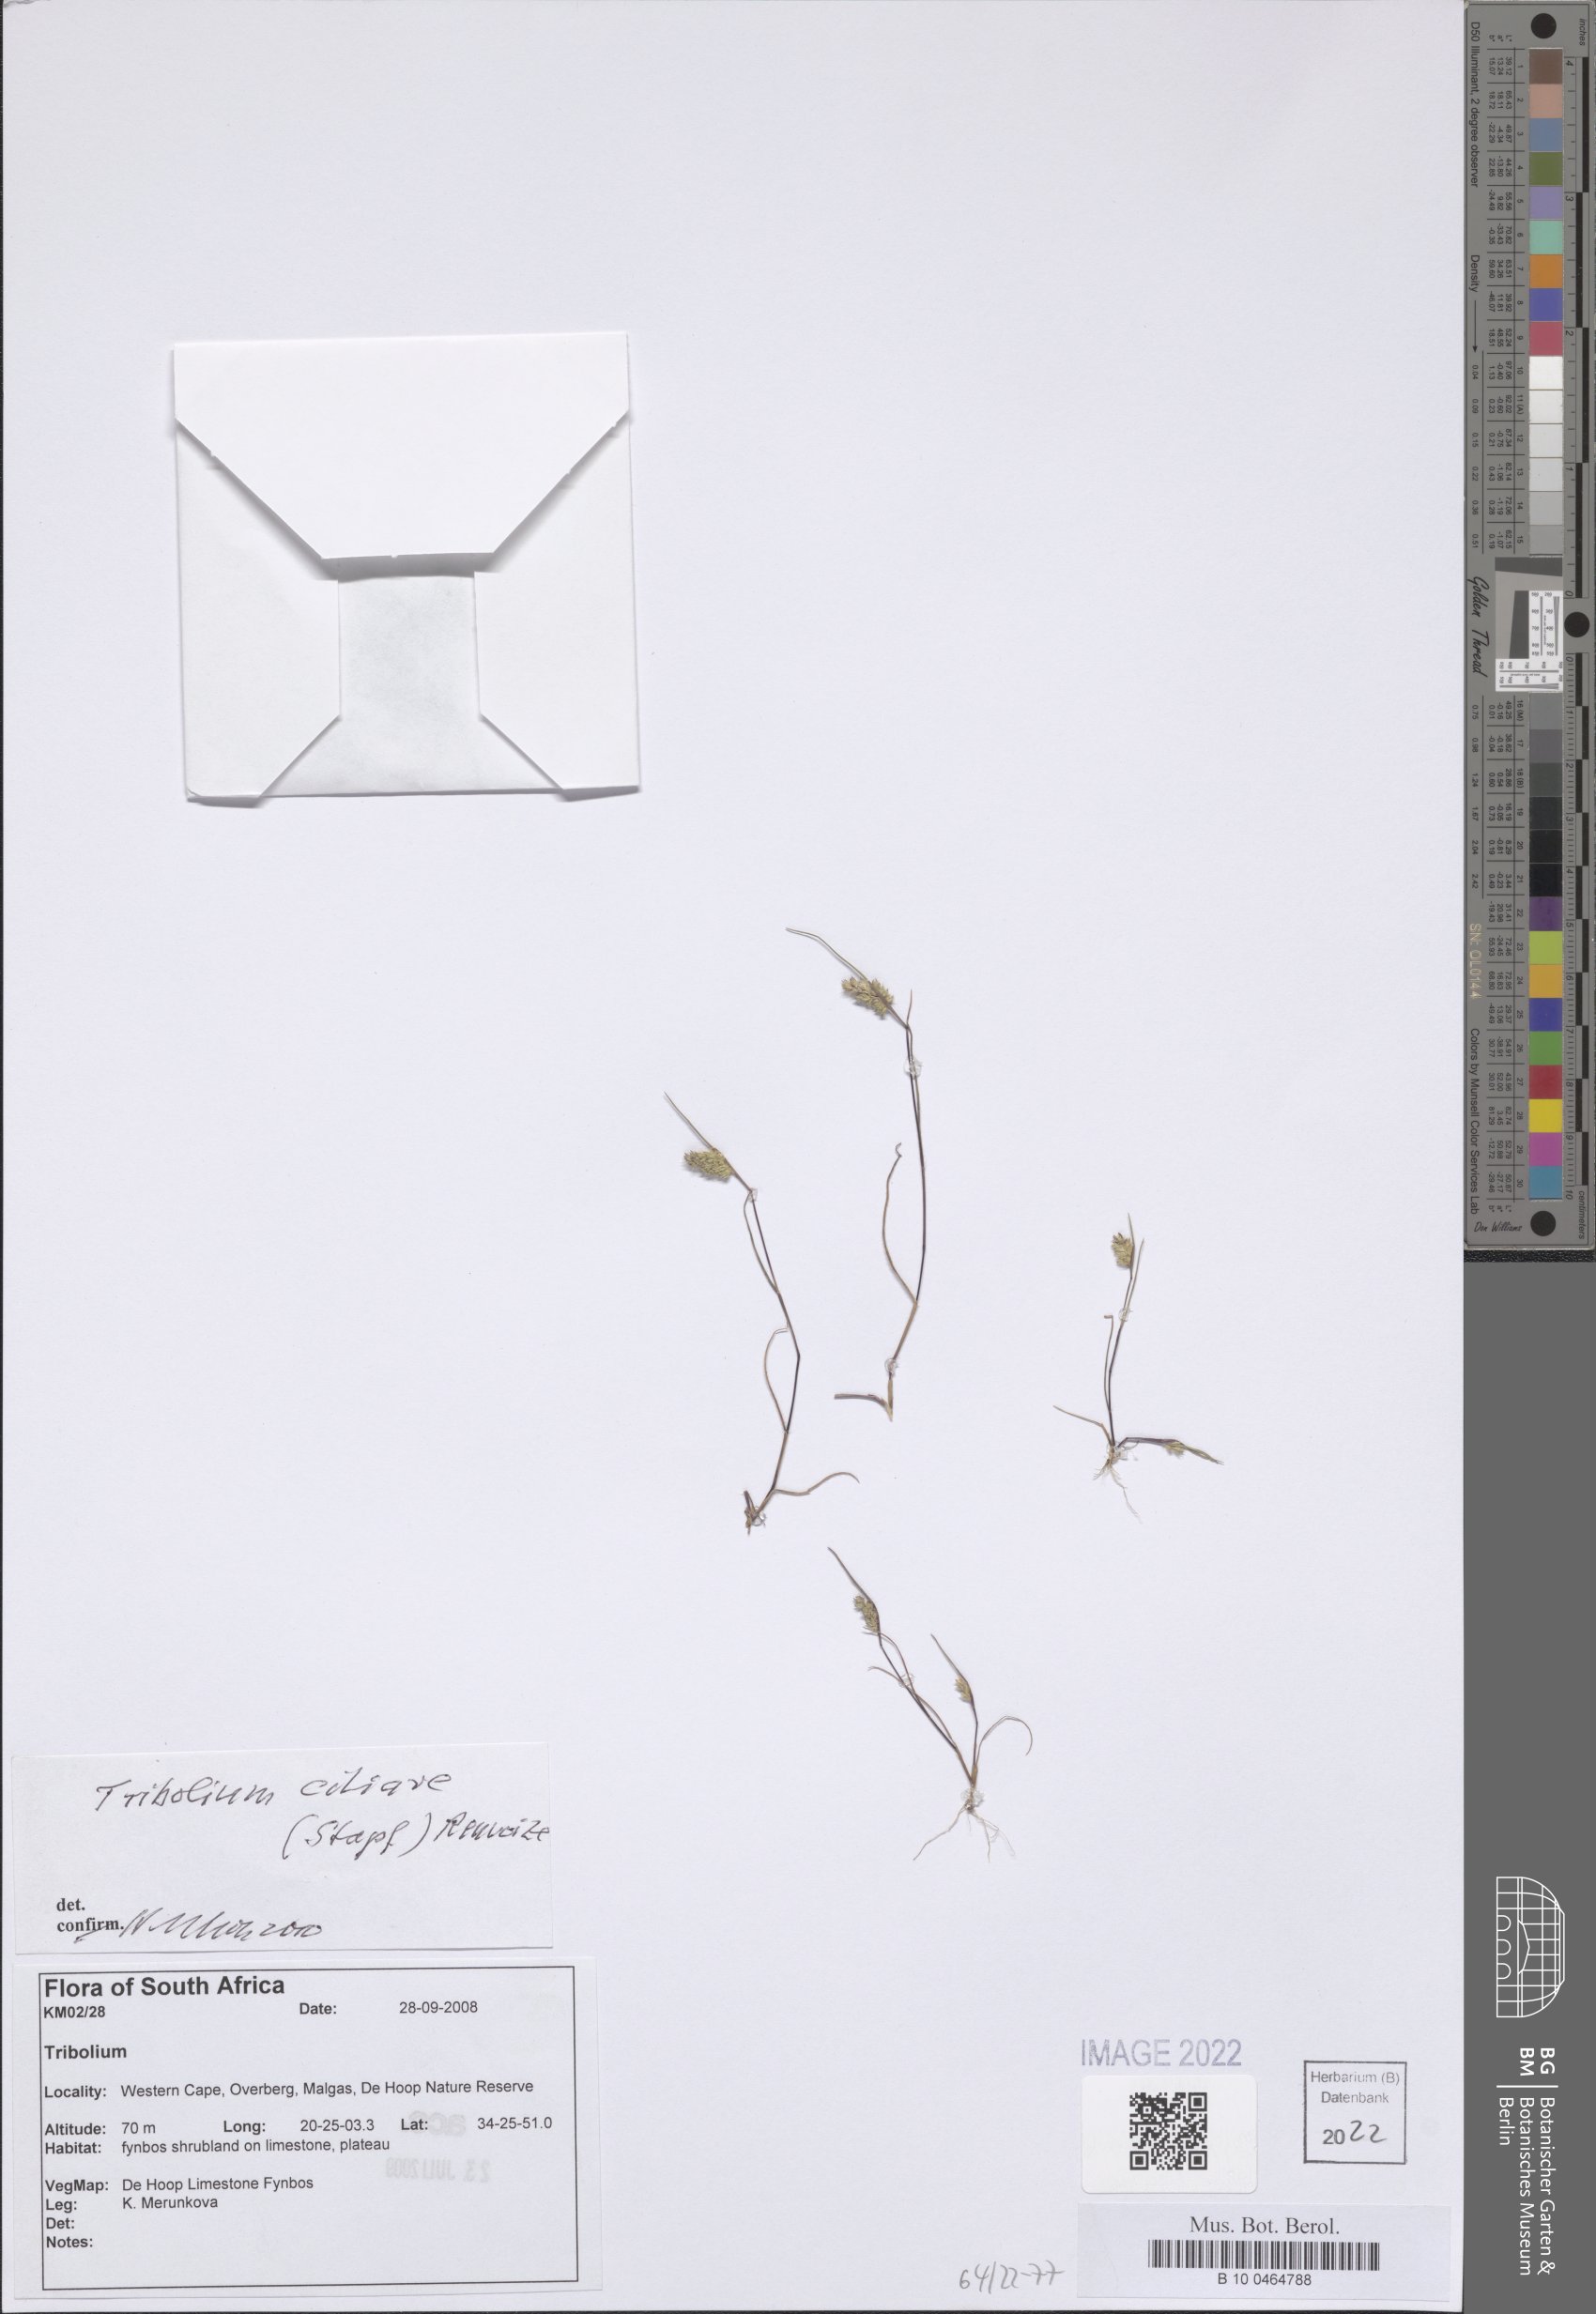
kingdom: Plantae
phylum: Tracheophyta
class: Liliopsida
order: Poales
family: Poaceae
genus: Tribolium
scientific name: Tribolium ciliare
